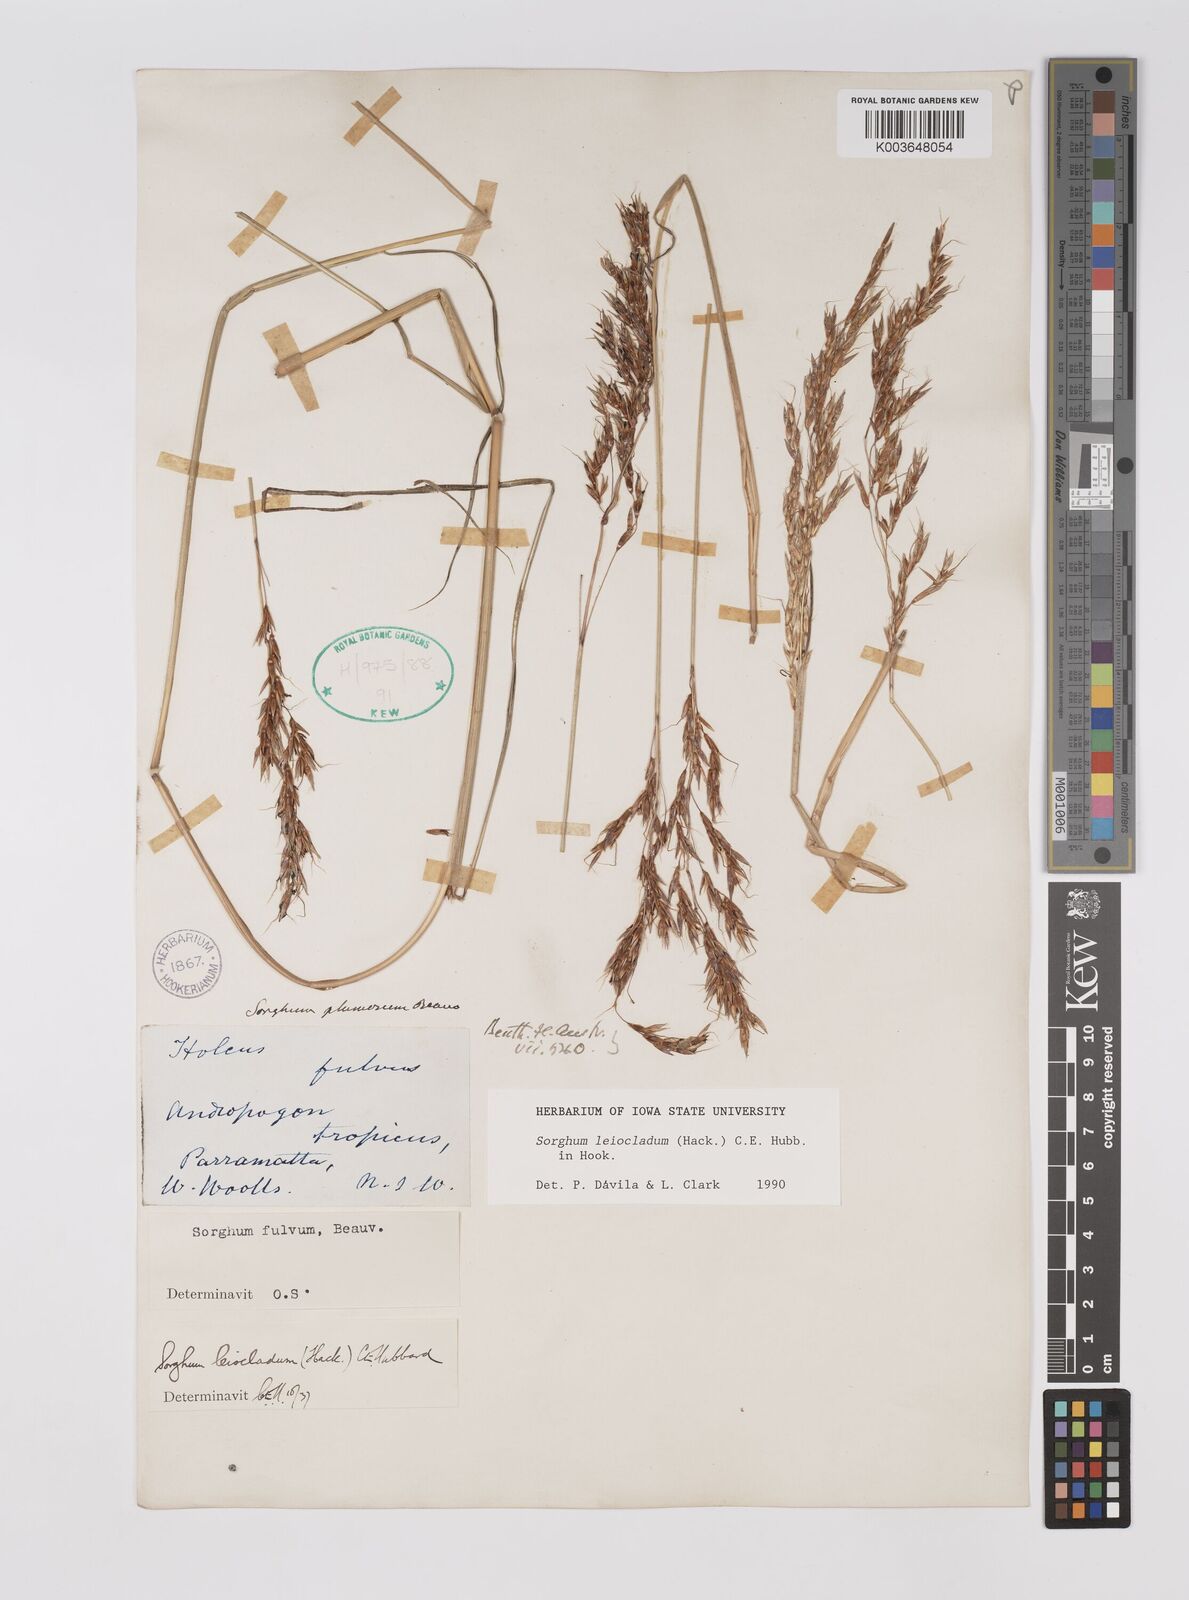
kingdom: Plantae
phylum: Tracheophyta
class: Liliopsida
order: Poales
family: Poaceae
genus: Sarga
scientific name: Sarga leioclada
